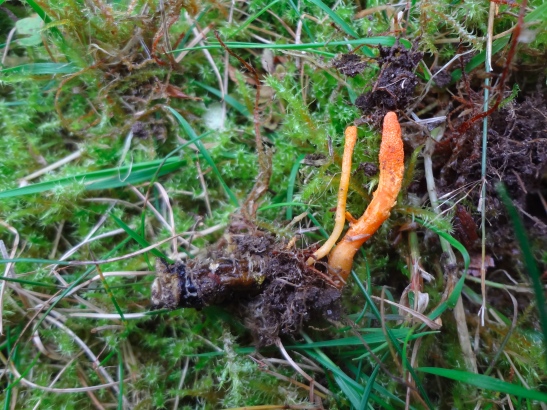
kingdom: Fungi
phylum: Ascomycota
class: Sordariomycetes
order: Hypocreales
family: Cordycipitaceae
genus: Cordyceps
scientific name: Cordyceps militaris
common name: puppe-snyltekølle
